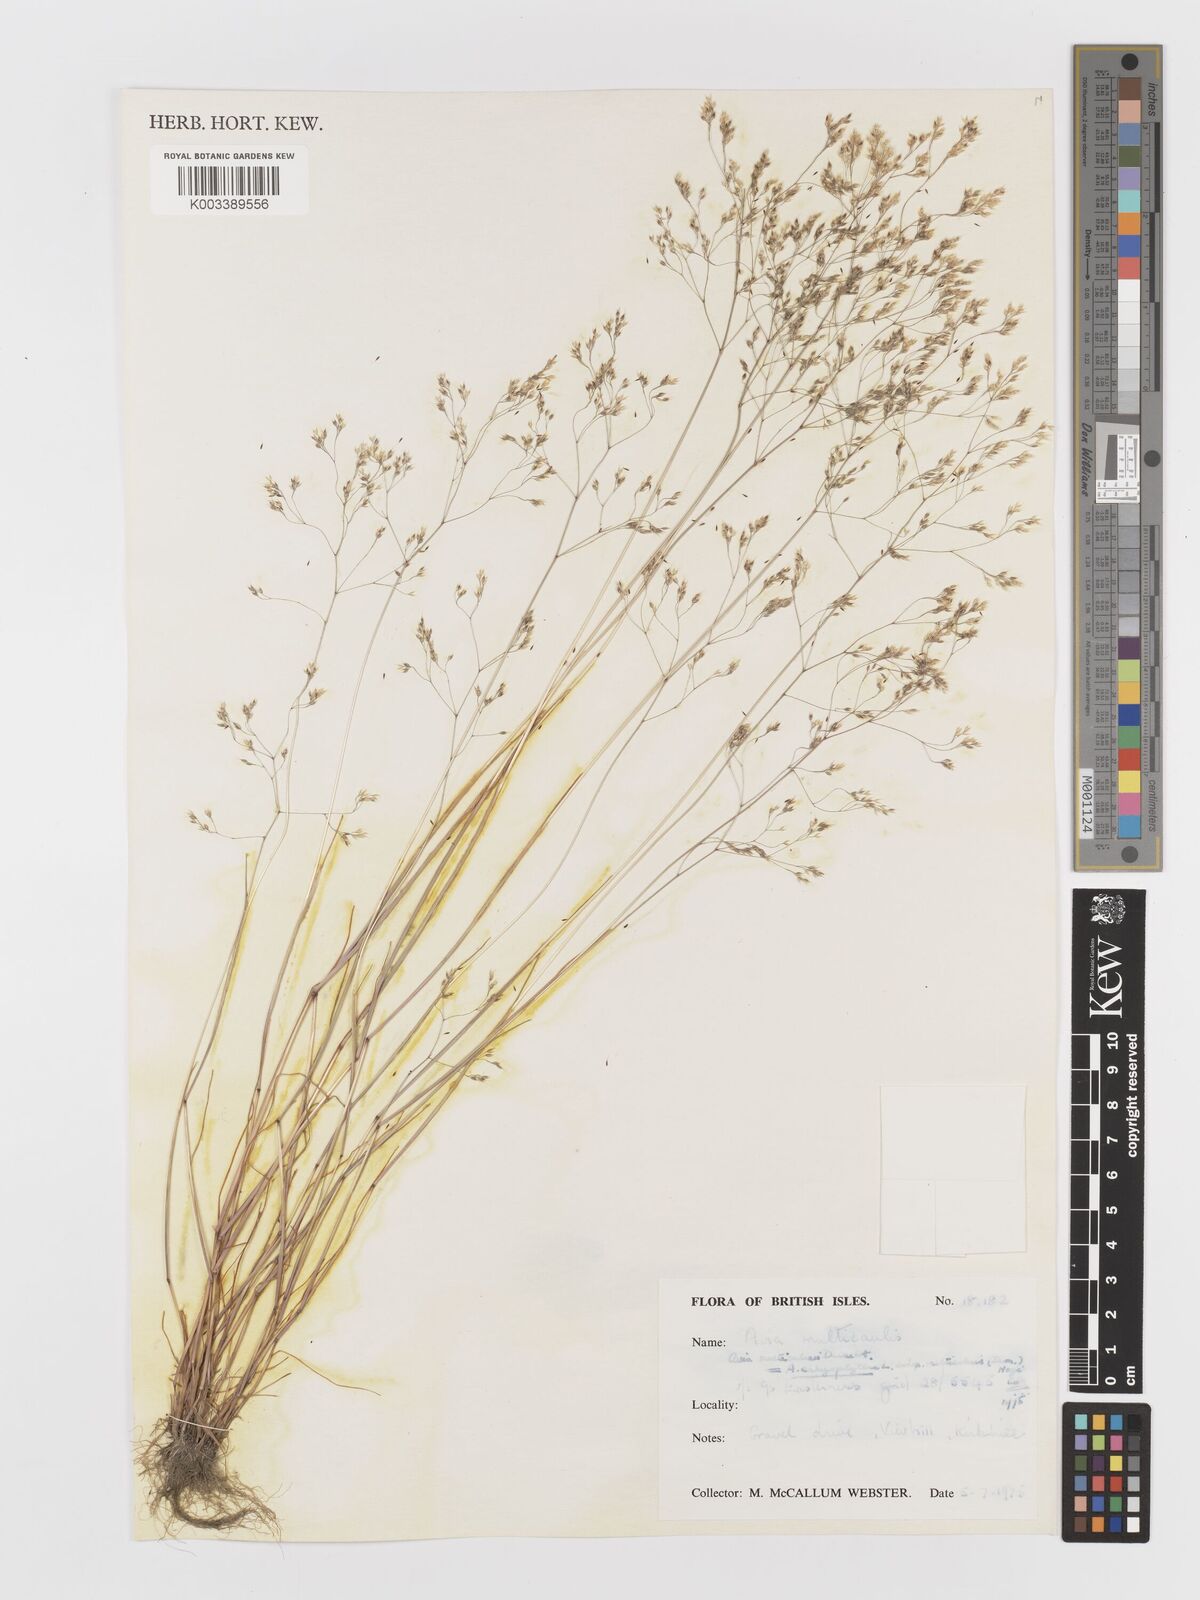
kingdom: Plantae
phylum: Tracheophyta
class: Liliopsida
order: Poales
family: Poaceae
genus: Aira
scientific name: Aira caryophyllea
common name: Silver hairgrass
